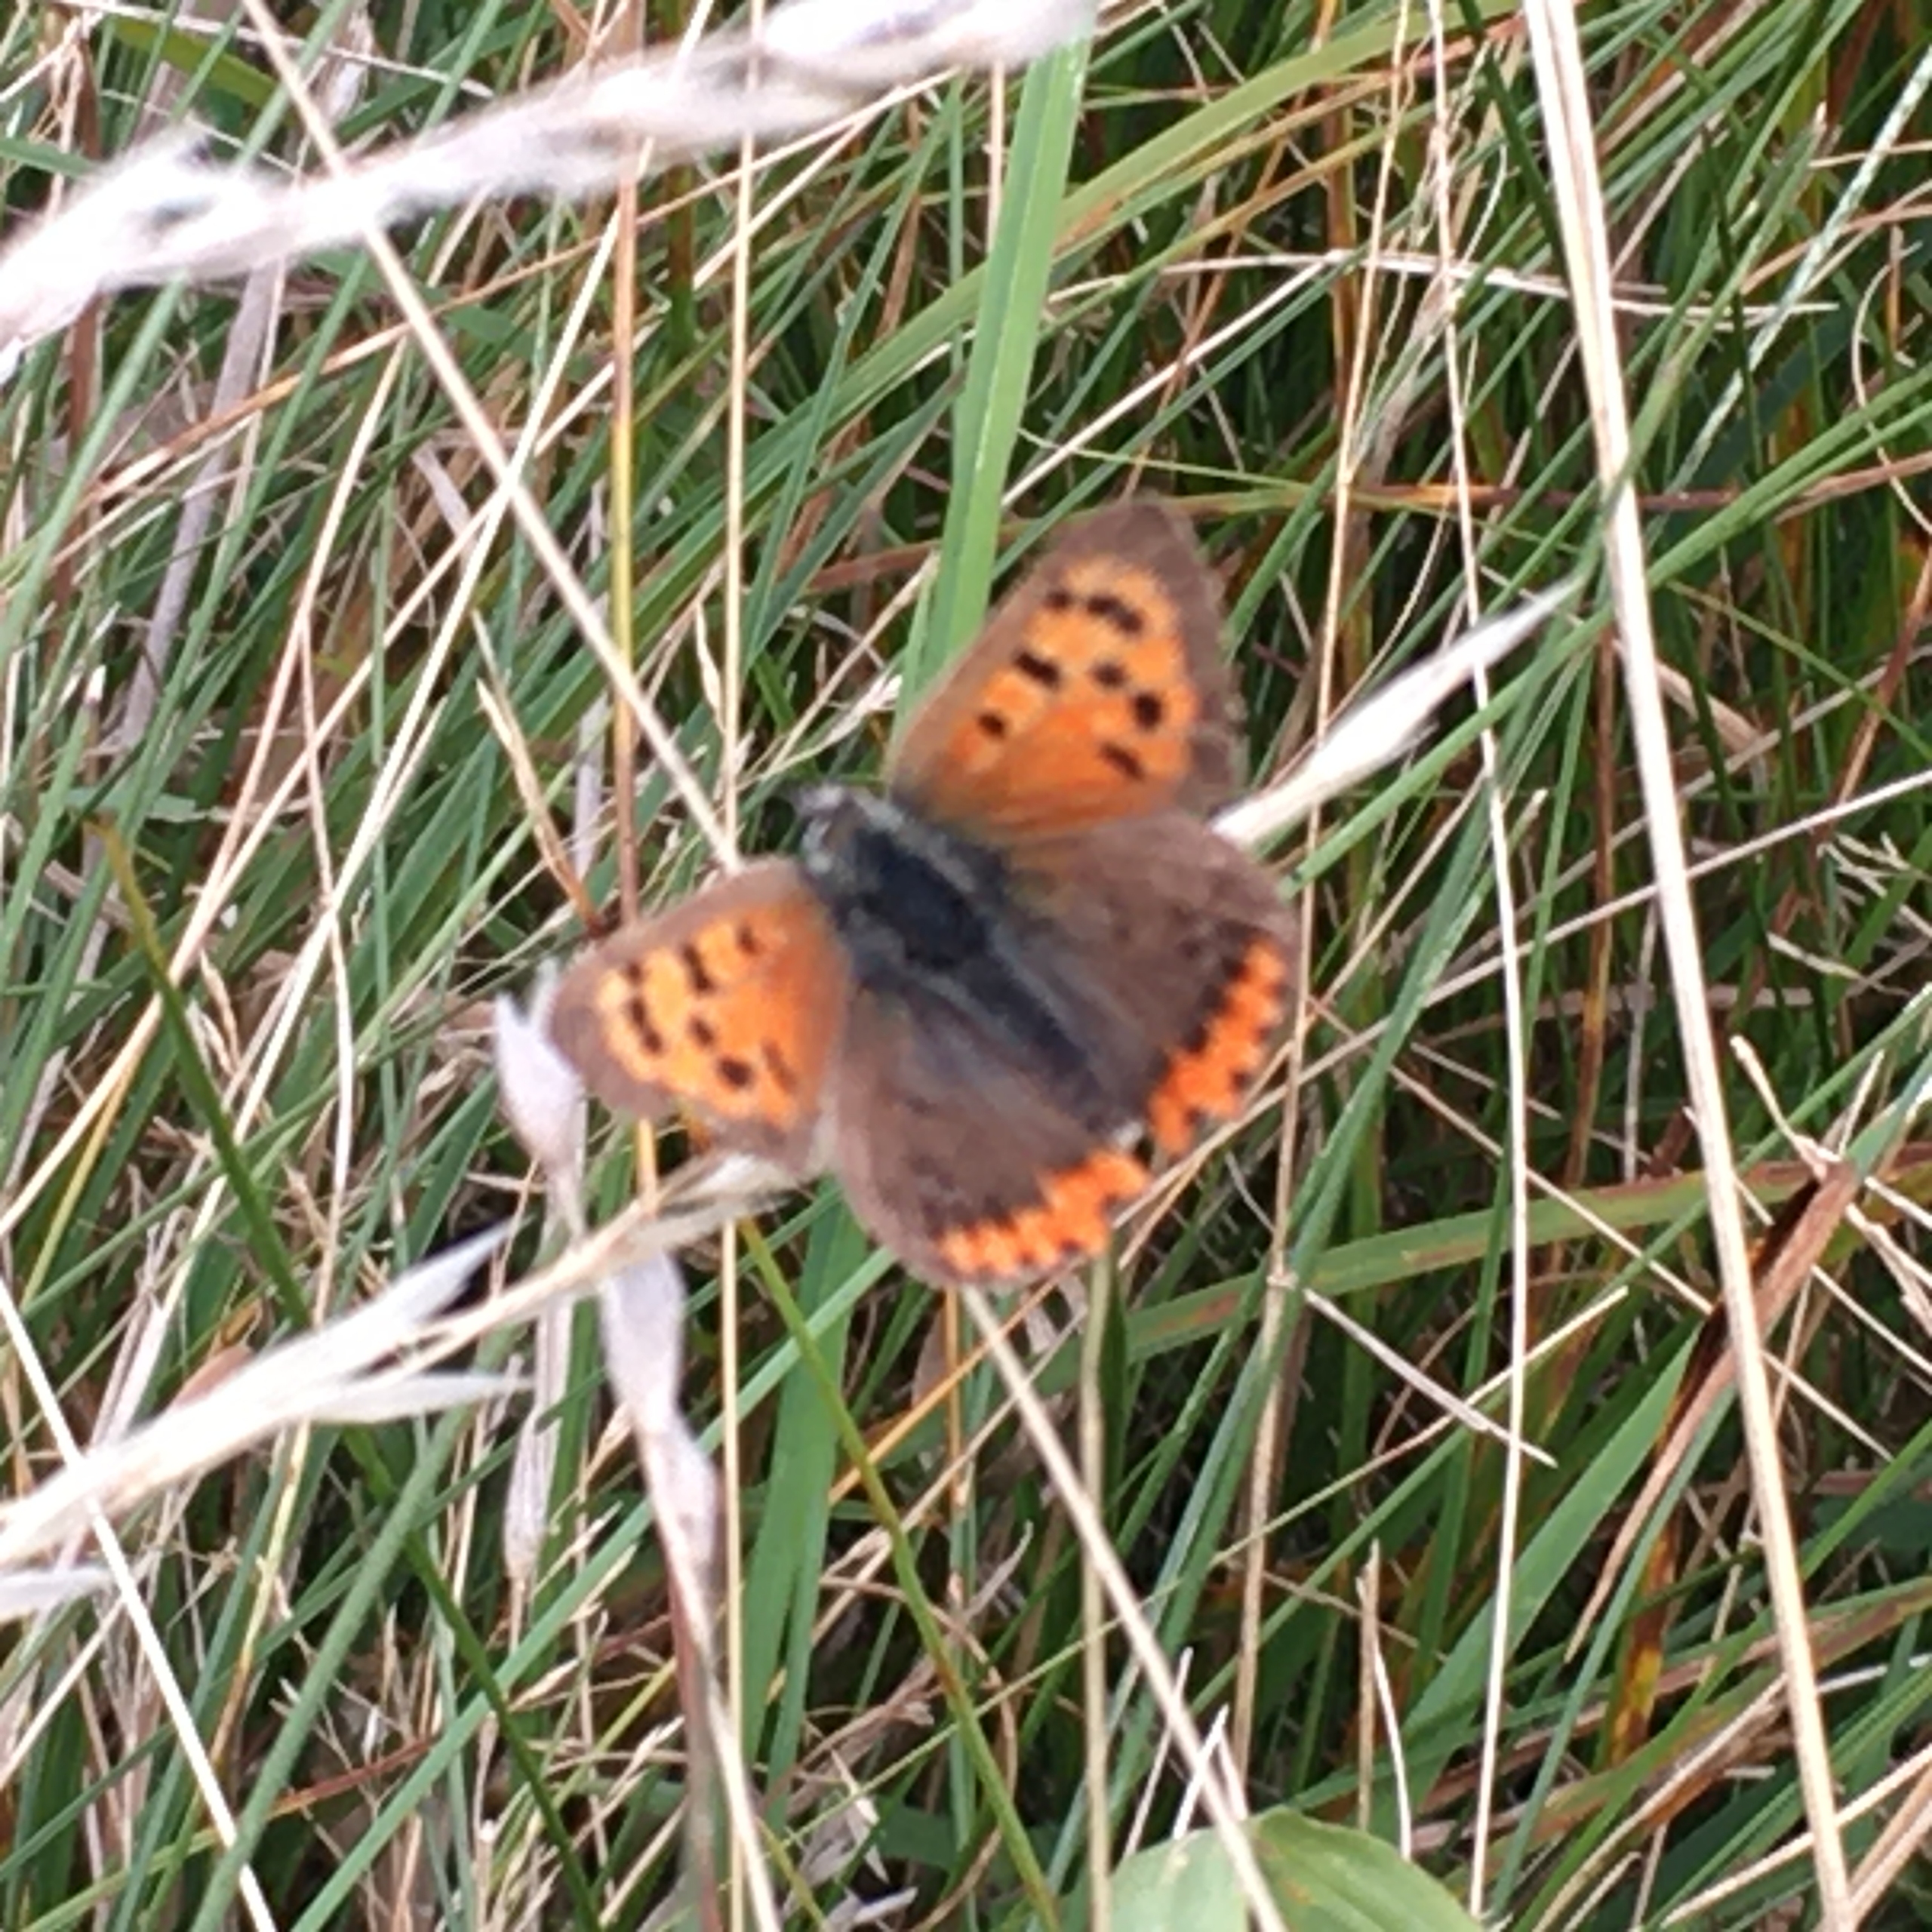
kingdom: Animalia
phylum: Arthropoda
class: Insecta
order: Lepidoptera
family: Lycaenidae
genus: Lycaena
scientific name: Lycaena phlaeas
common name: Lille ildfugl
